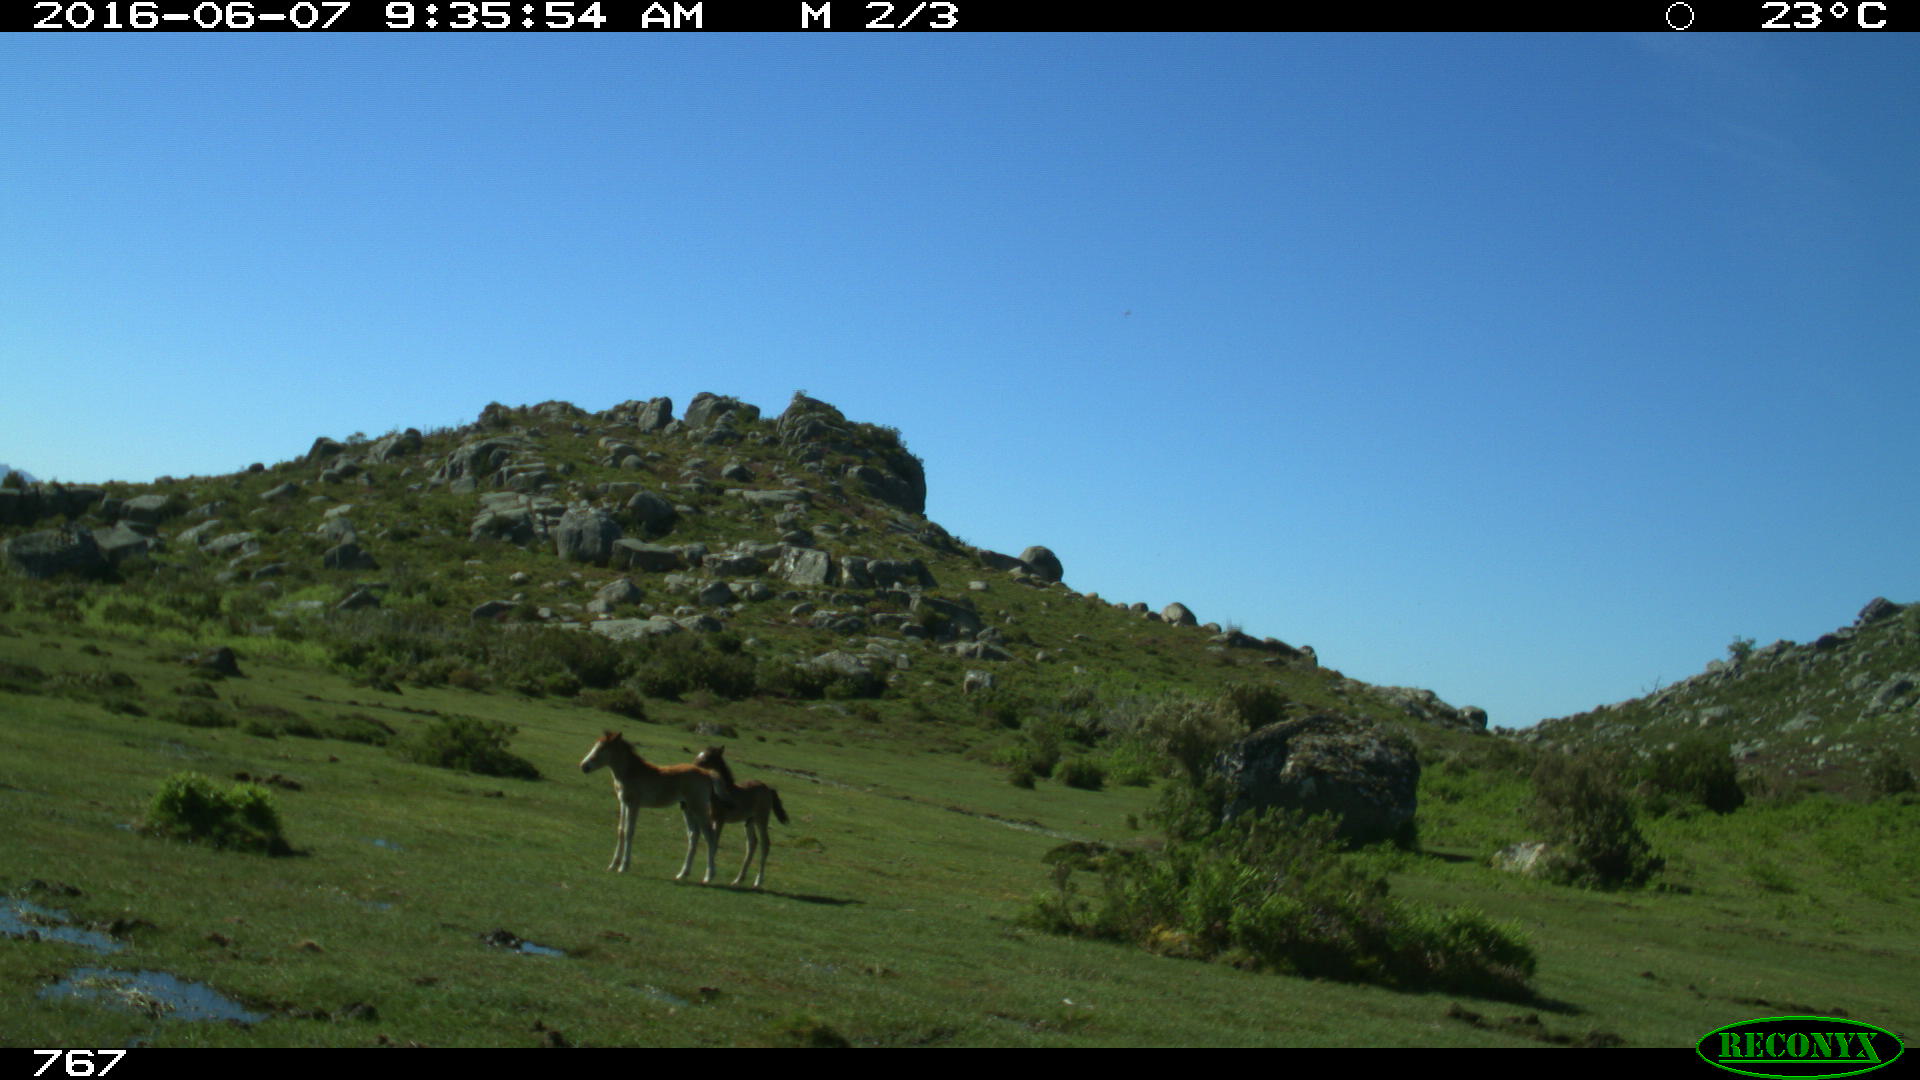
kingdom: Animalia
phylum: Chordata
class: Mammalia
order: Perissodactyla
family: Equidae
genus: Equus
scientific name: Equus caballus
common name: Horse
